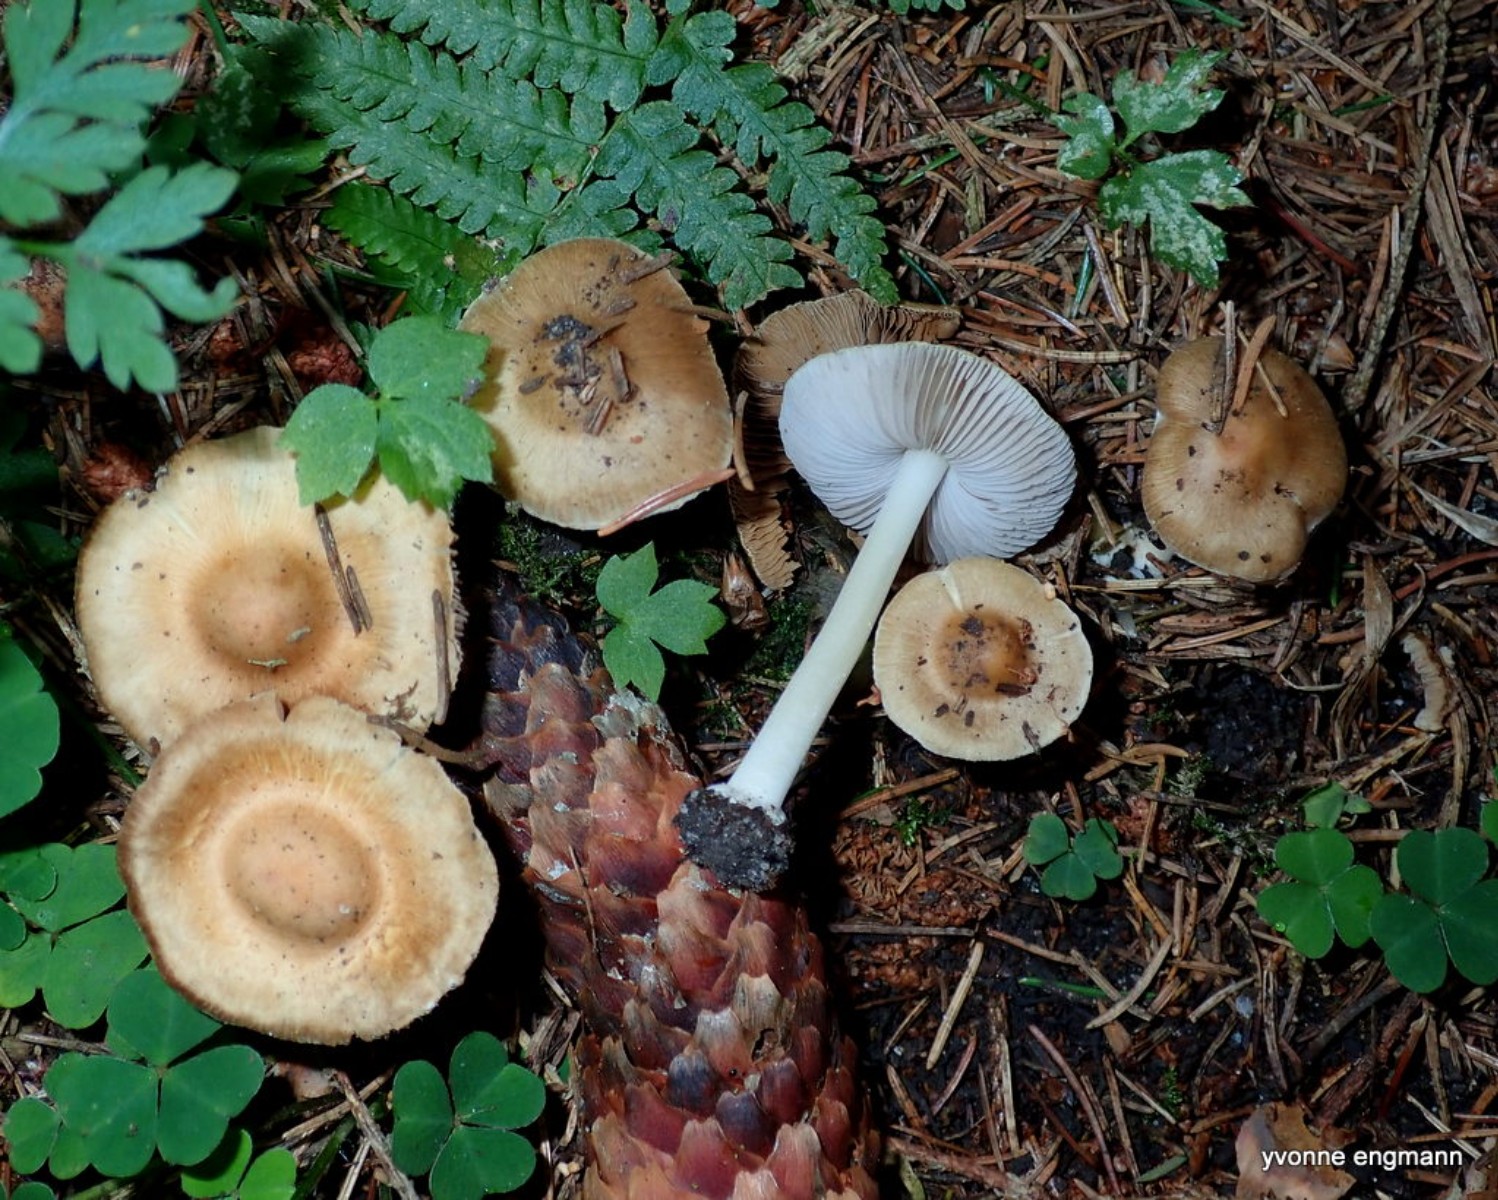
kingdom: Fungi
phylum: Basidiomycota
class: Agaricomycetes
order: Agaricales
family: Inocybaceae
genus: Inocybe
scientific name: Inocybe mixtilis
